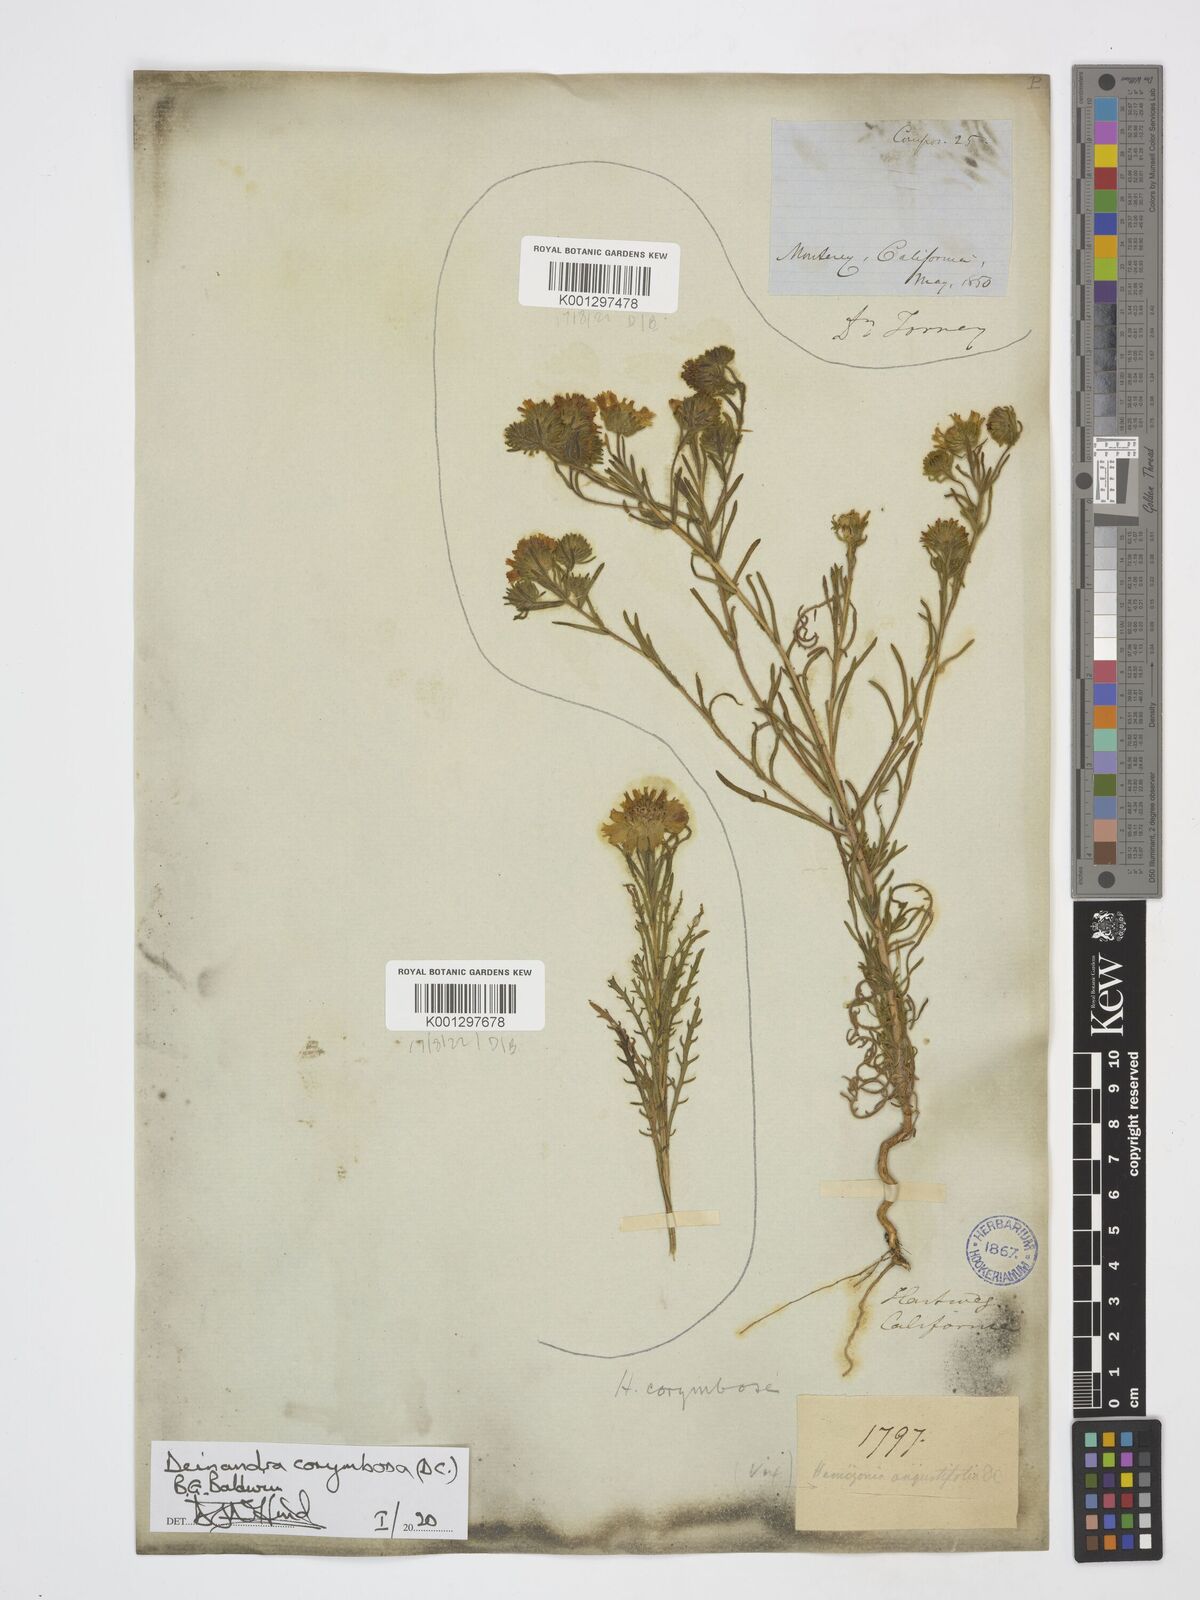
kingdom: Plantae
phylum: Tracheophyta
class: Magnoliopsida
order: Asterales
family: Asteraceae
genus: Deinandra
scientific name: Deinandra corymbosa
